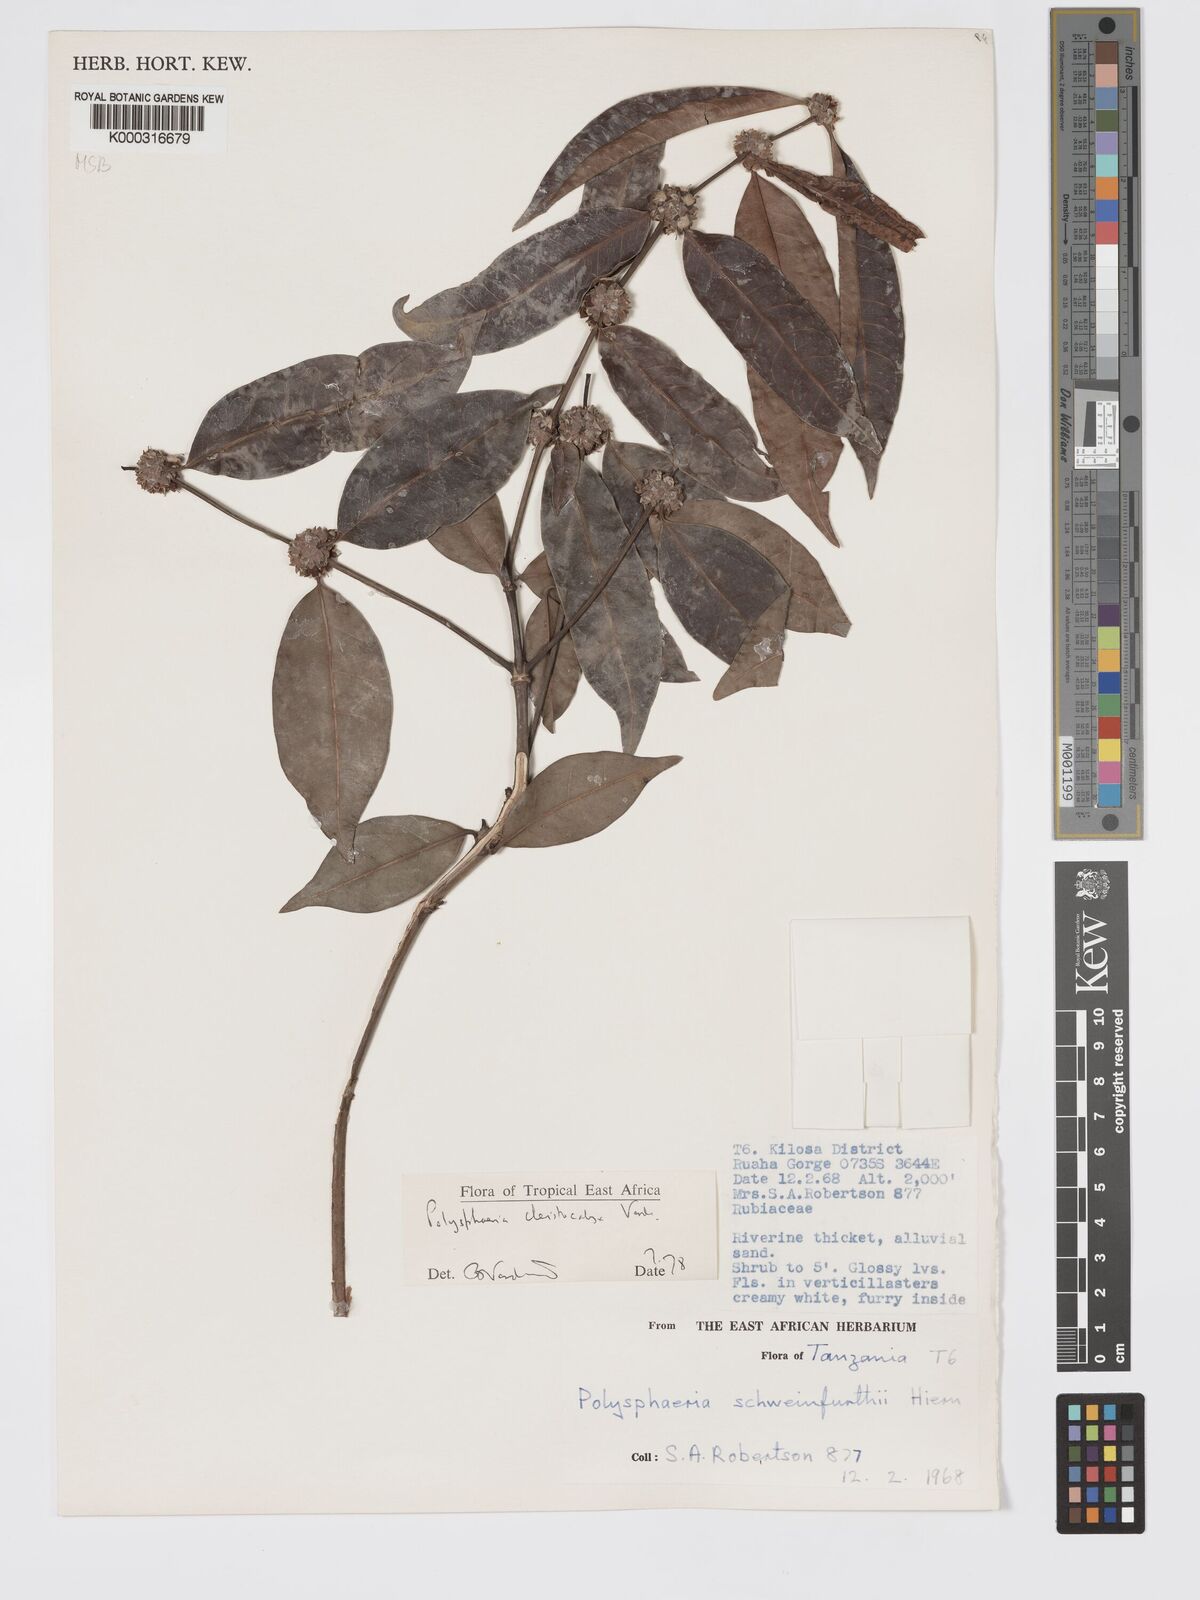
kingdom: Plantae
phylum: Tracheophyta
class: Magnoliopsida
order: Gentianales
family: Rubiaceae
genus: Polysphaeria
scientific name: Polysphaeria cleistocalyx
